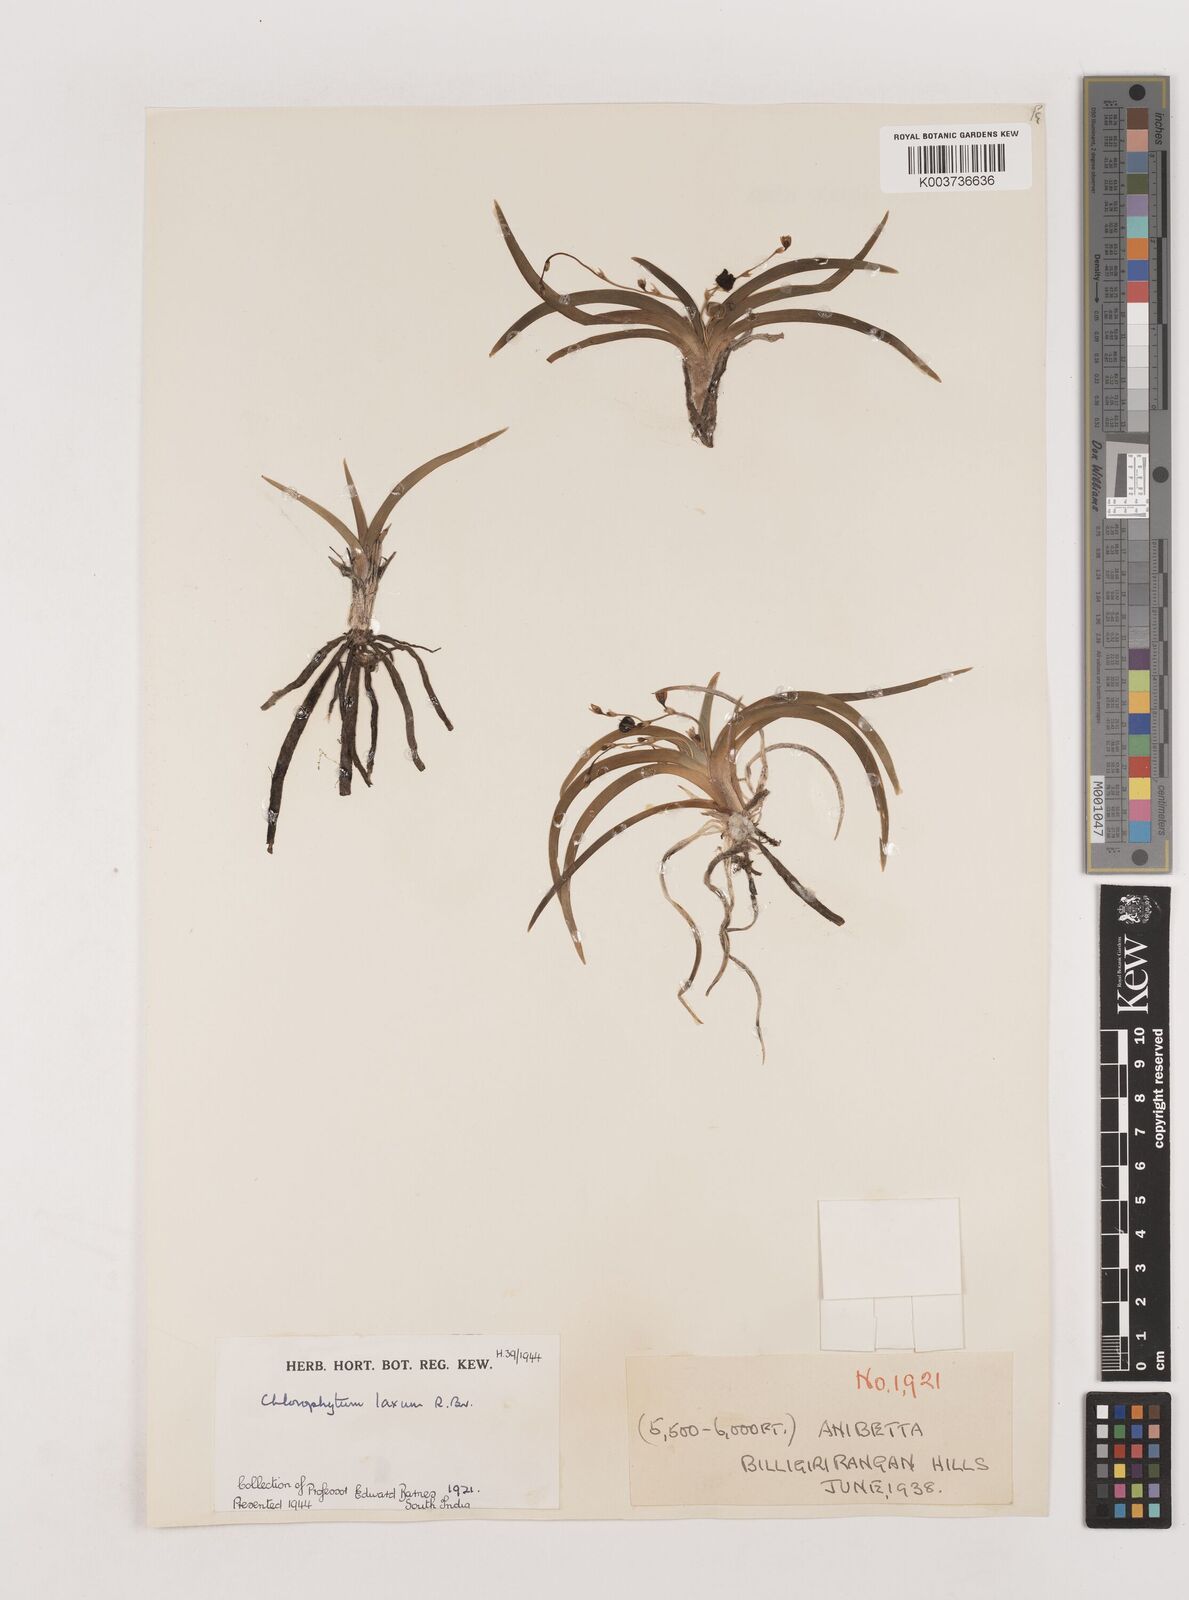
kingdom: Plantae
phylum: Tracheophyta
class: Liliopsida
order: Asparagales
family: Asparagaceae
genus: Chlorophytum
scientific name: Chlorophytum laxum
